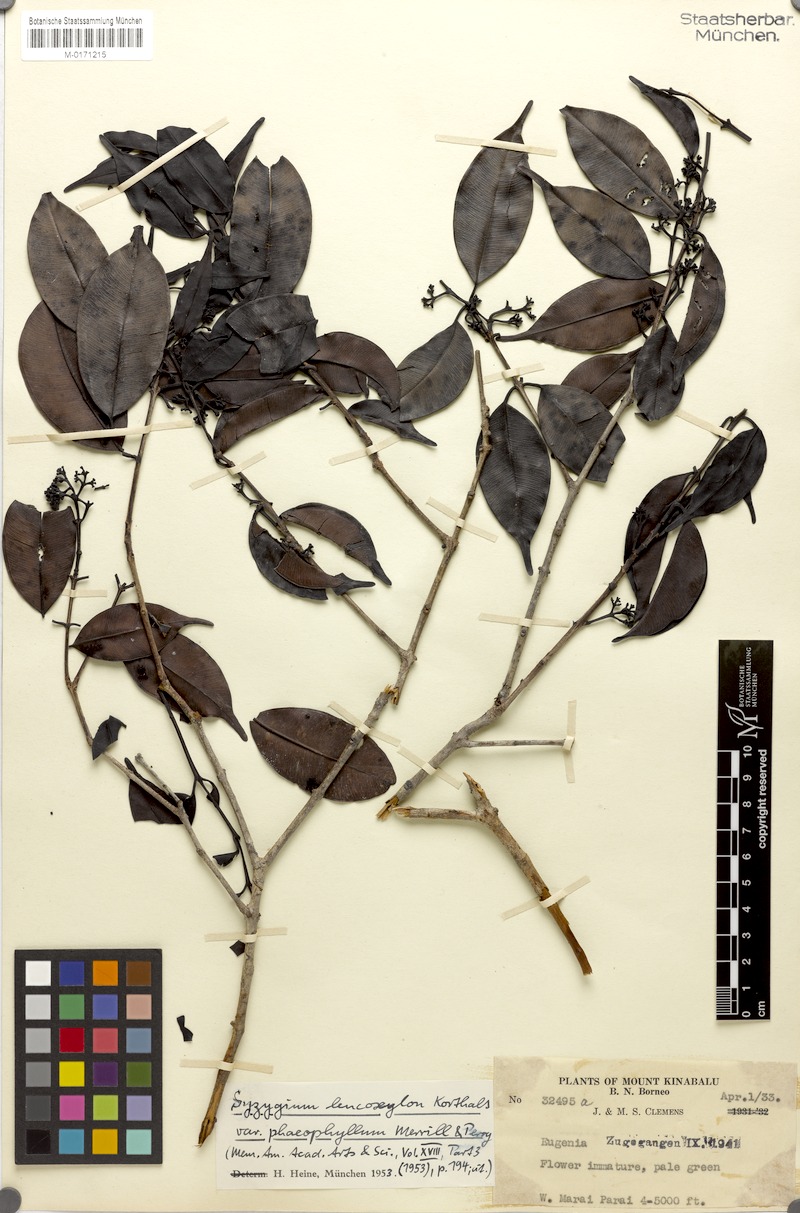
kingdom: Plantae
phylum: Tracheophyta
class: Magnoliopsida
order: Myrtales
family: Myrtaceae
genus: Syzygium
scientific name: Syzygium nigricans
